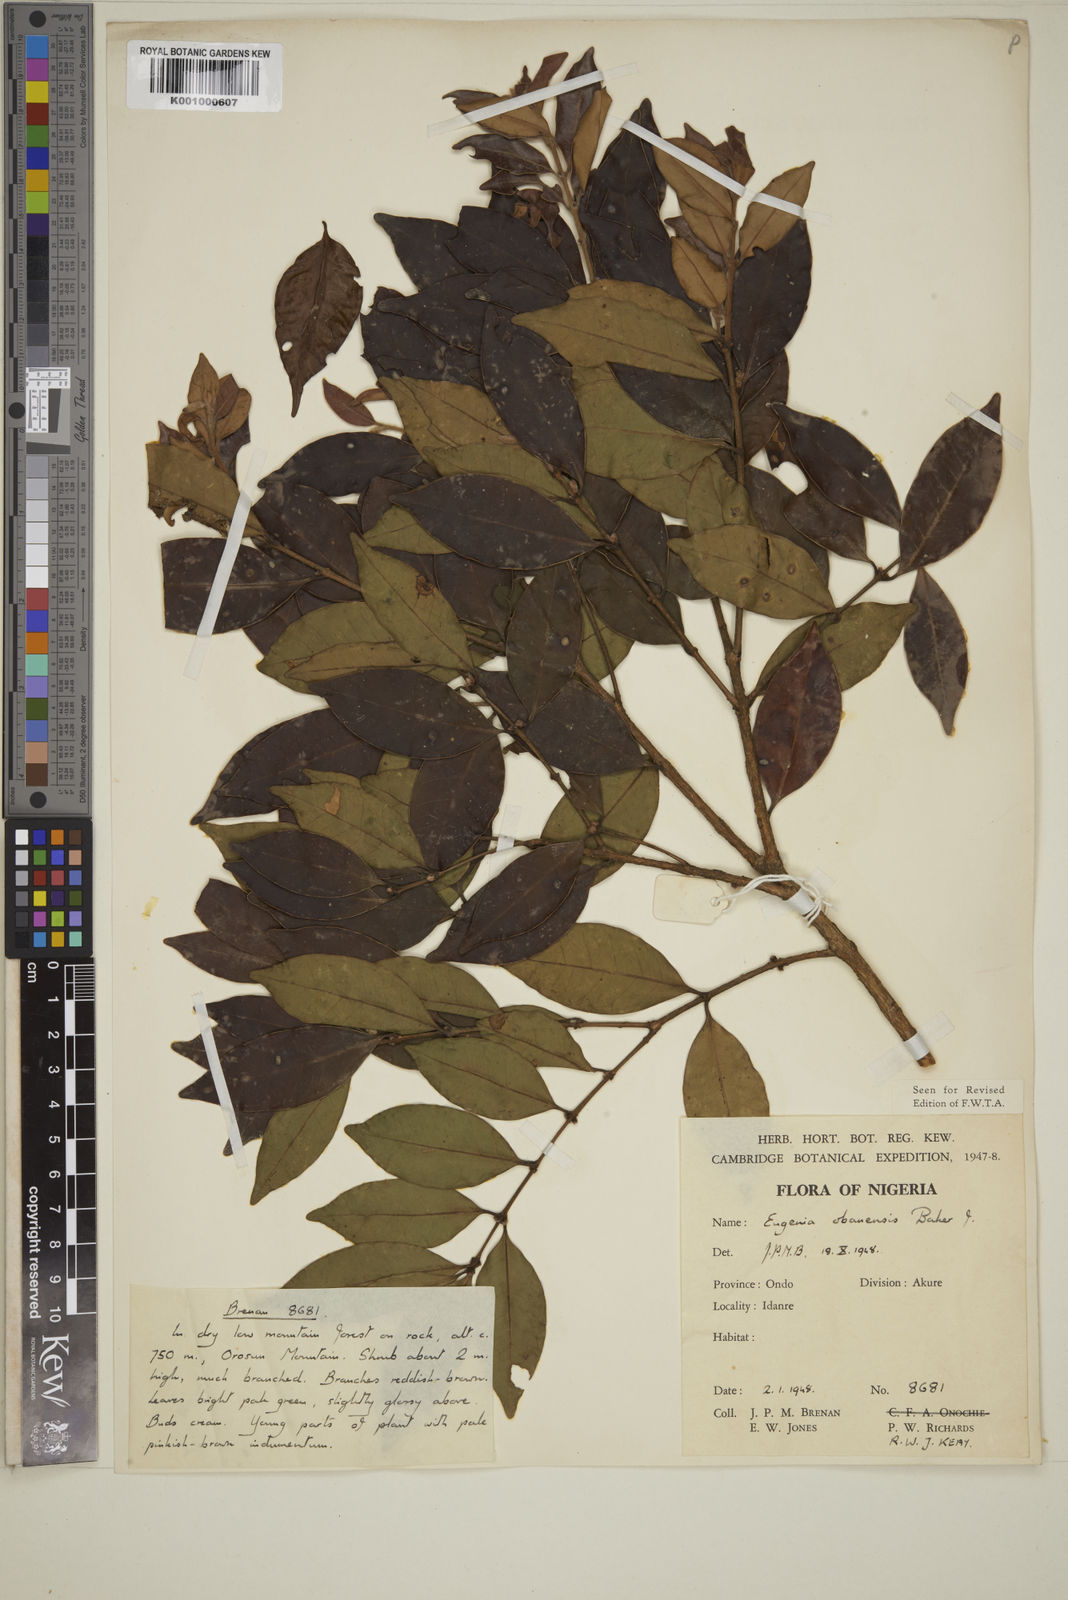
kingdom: Plantae
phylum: Tracheophyta
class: Magnoliopsida
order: Myrtales
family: Myrtaceae
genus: Eugenia
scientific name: Eugenia obanensis
